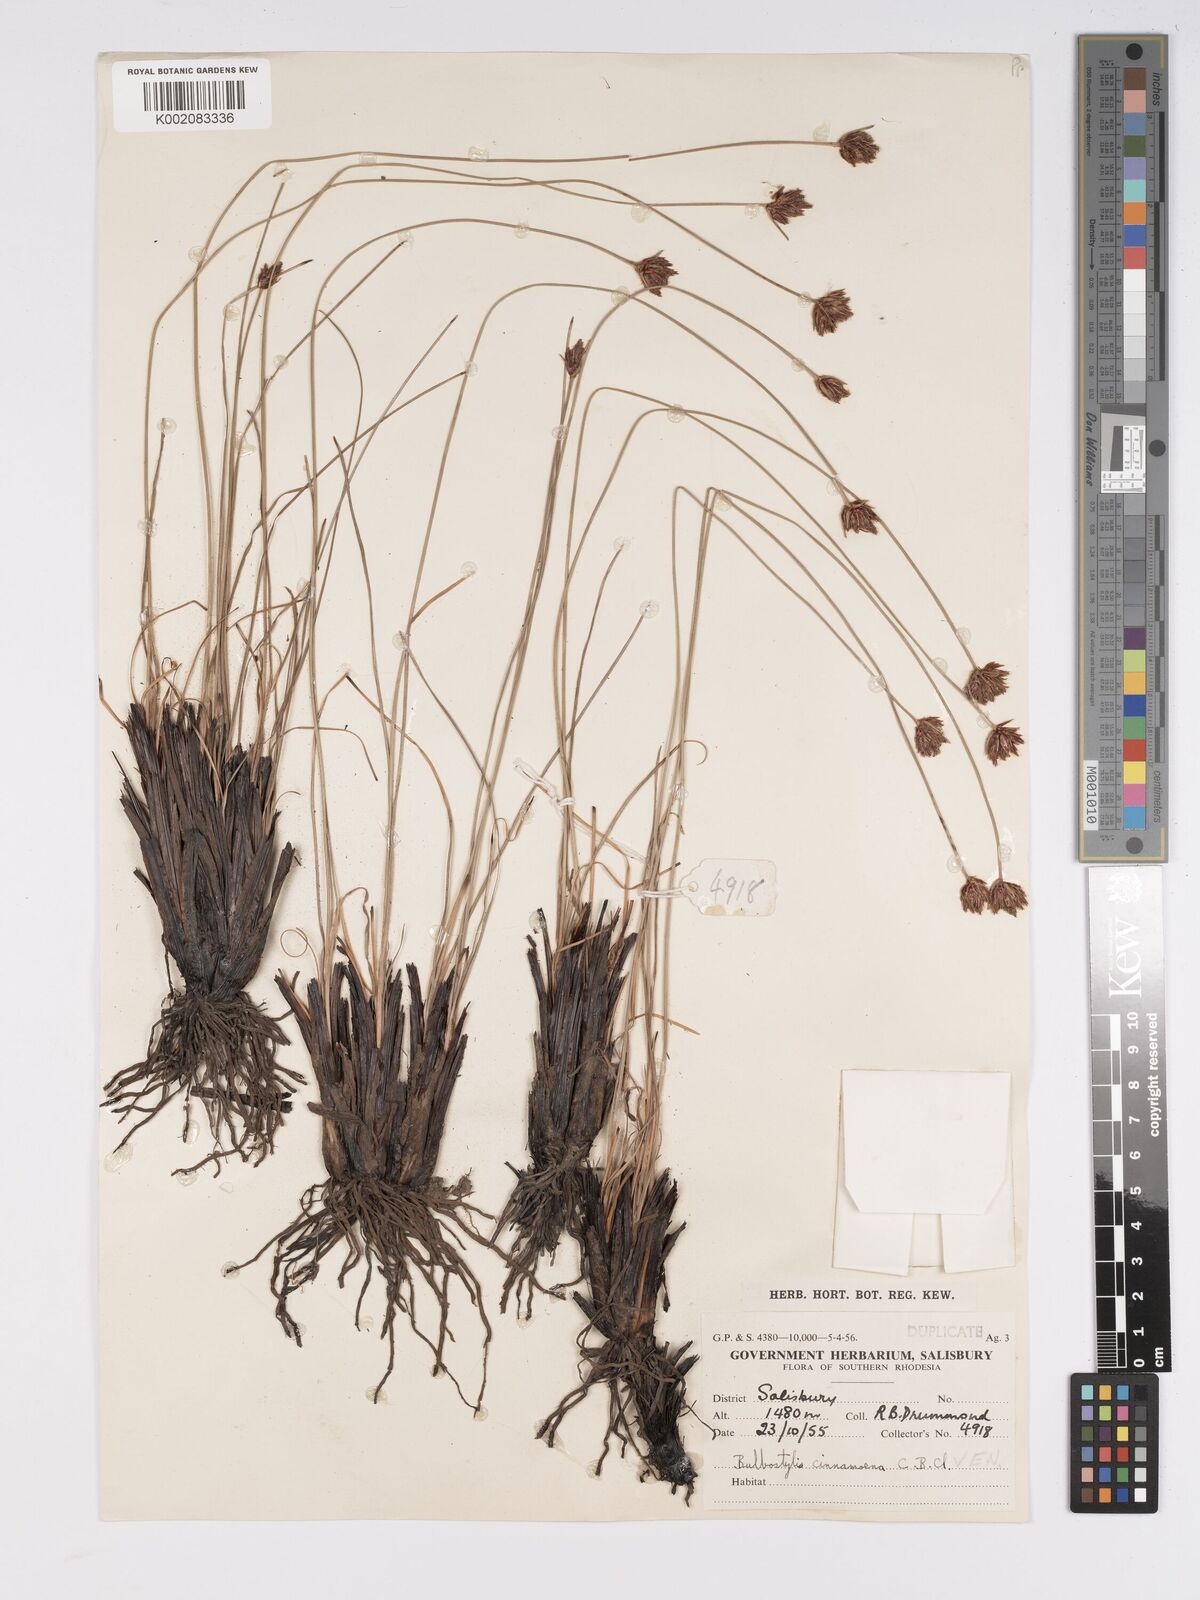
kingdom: Plantae
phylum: Tracheophyta
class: Liliopsida
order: Poales
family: Cyperaceae
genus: Bulbostylis
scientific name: Bulbostylis schoenoides
